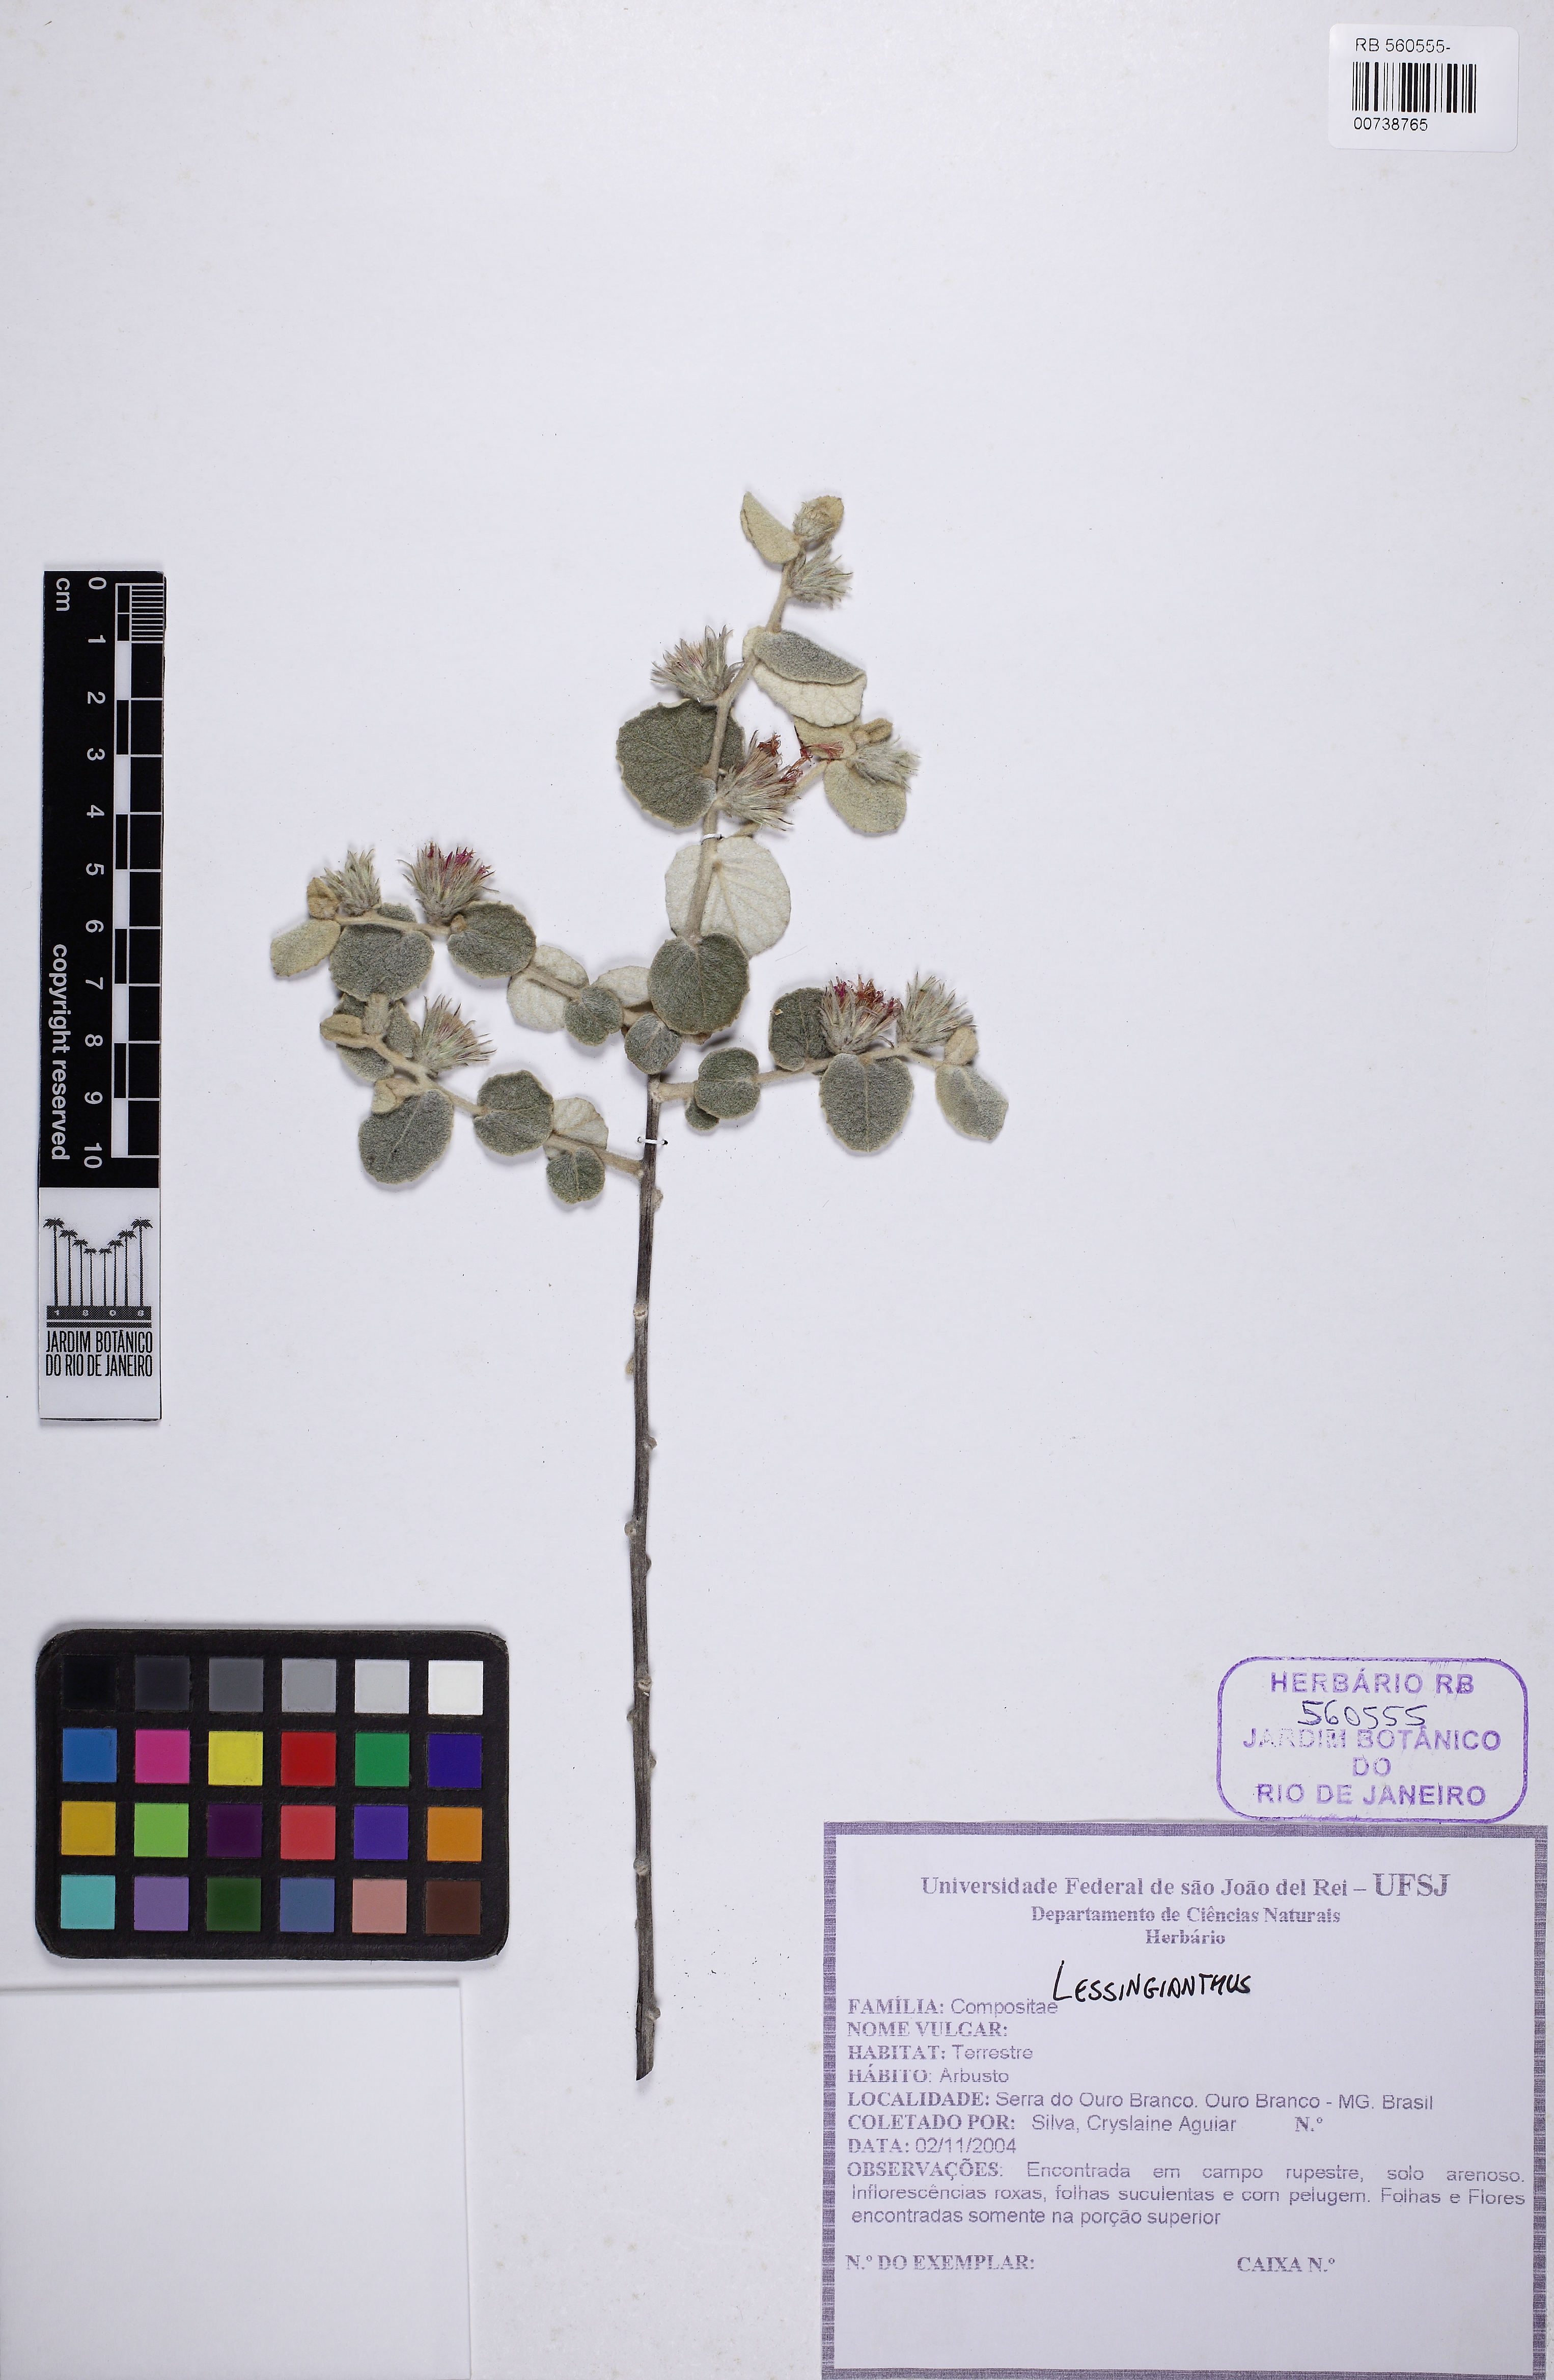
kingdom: Plantae
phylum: Tracheophyta
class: Magnoliopsida
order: Asterales
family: Asteraceae
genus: Lessingianthus
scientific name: Lessingianthus
